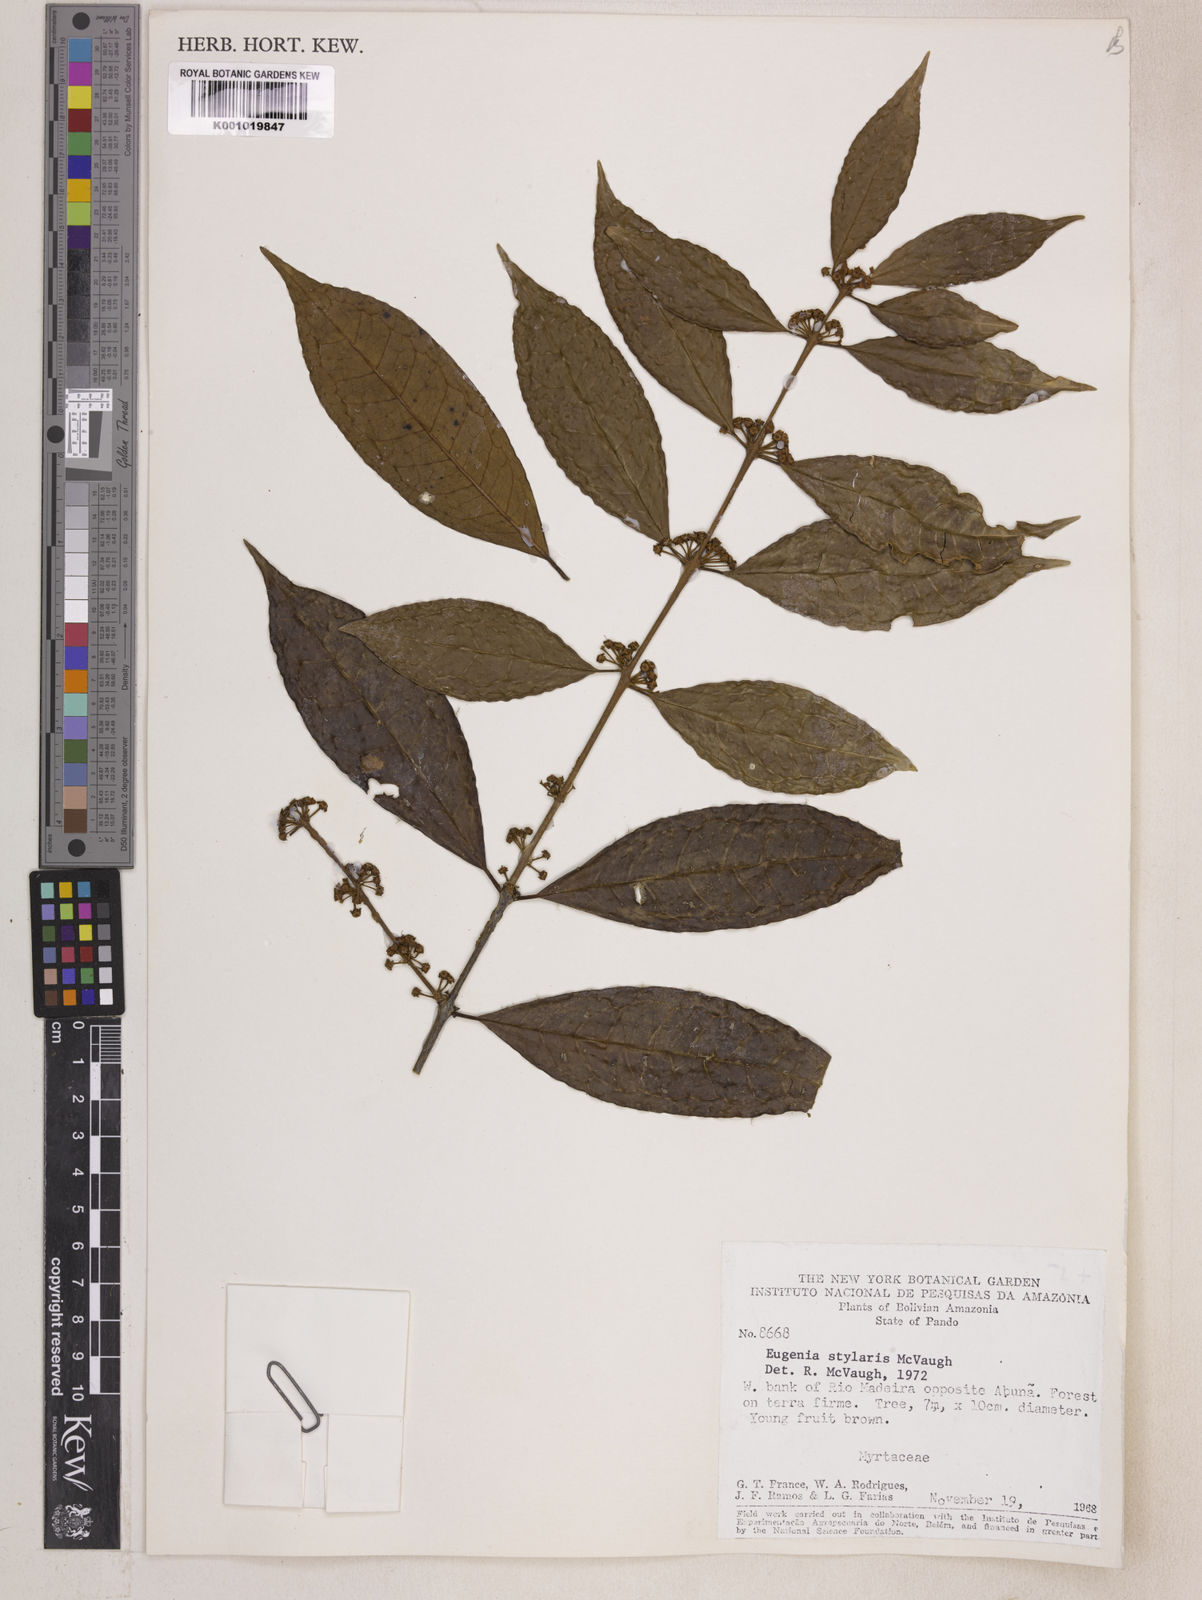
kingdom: Plantae
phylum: Tracheophyta
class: Magnoliopsida
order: Myrtales
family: Myrtaceae
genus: Eugenia
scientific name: Eugenia stylaris
